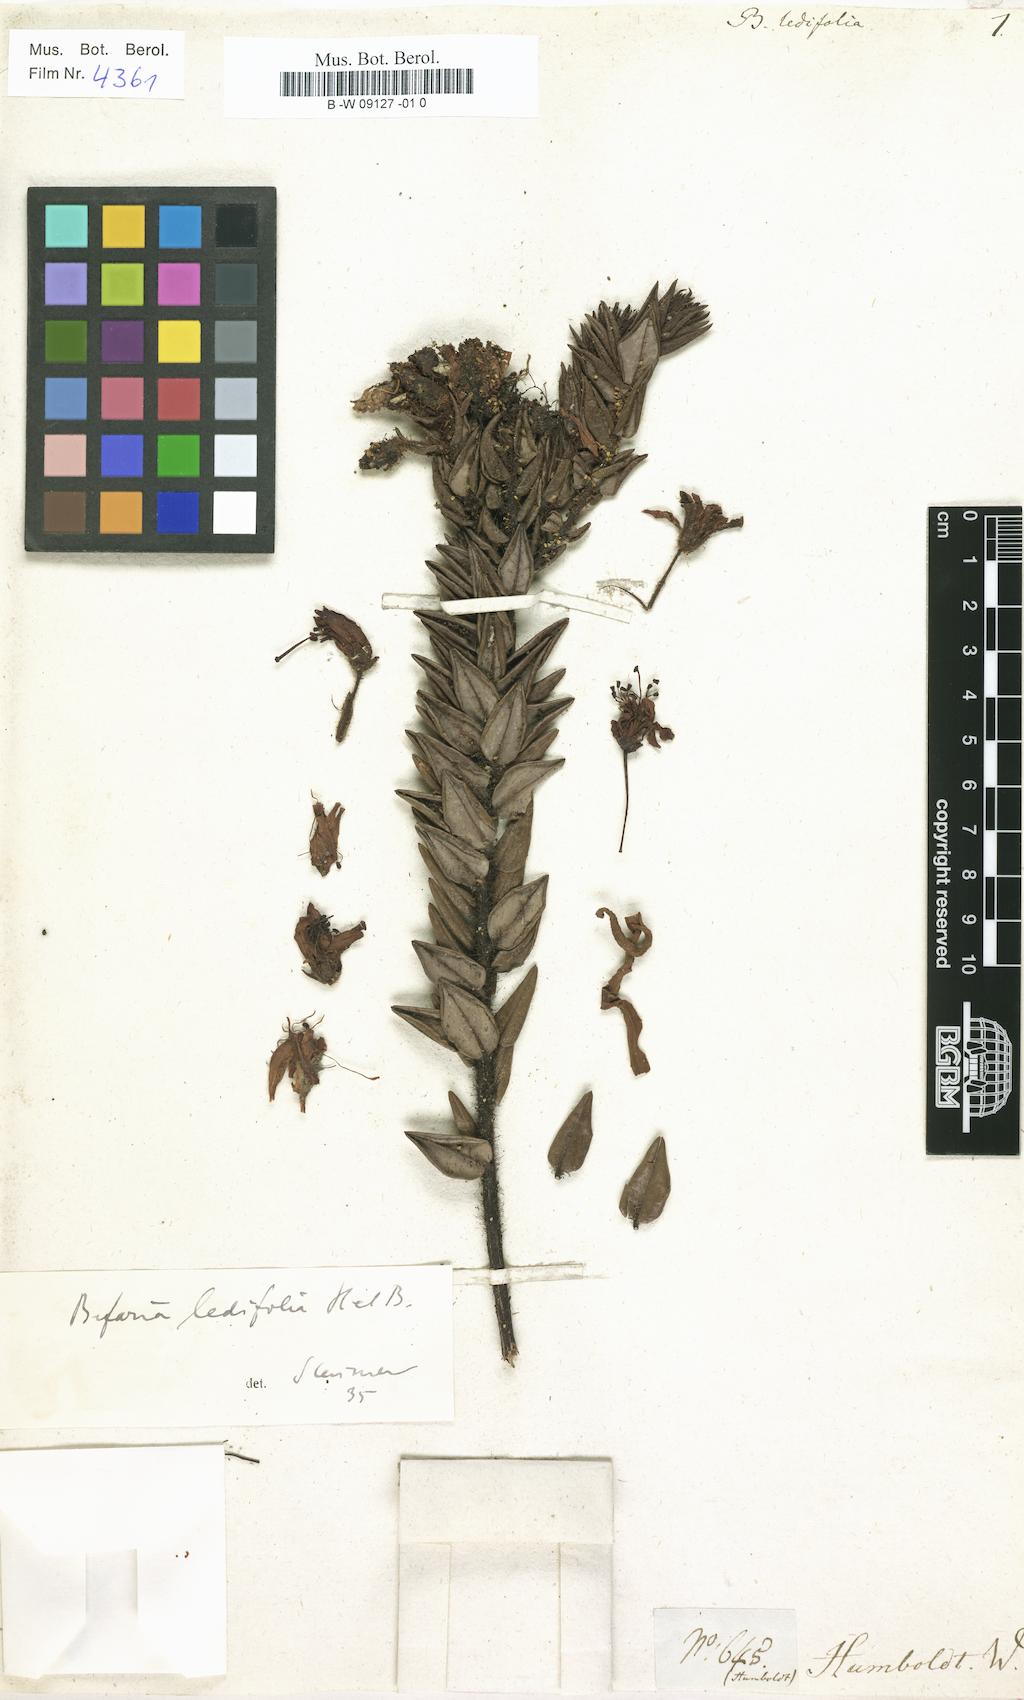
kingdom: Plantae
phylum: Tracheophyta
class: Magnoliopsida
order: Ericales
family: Ericaceae
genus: Bejaria
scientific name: Bejaria ledifolia
